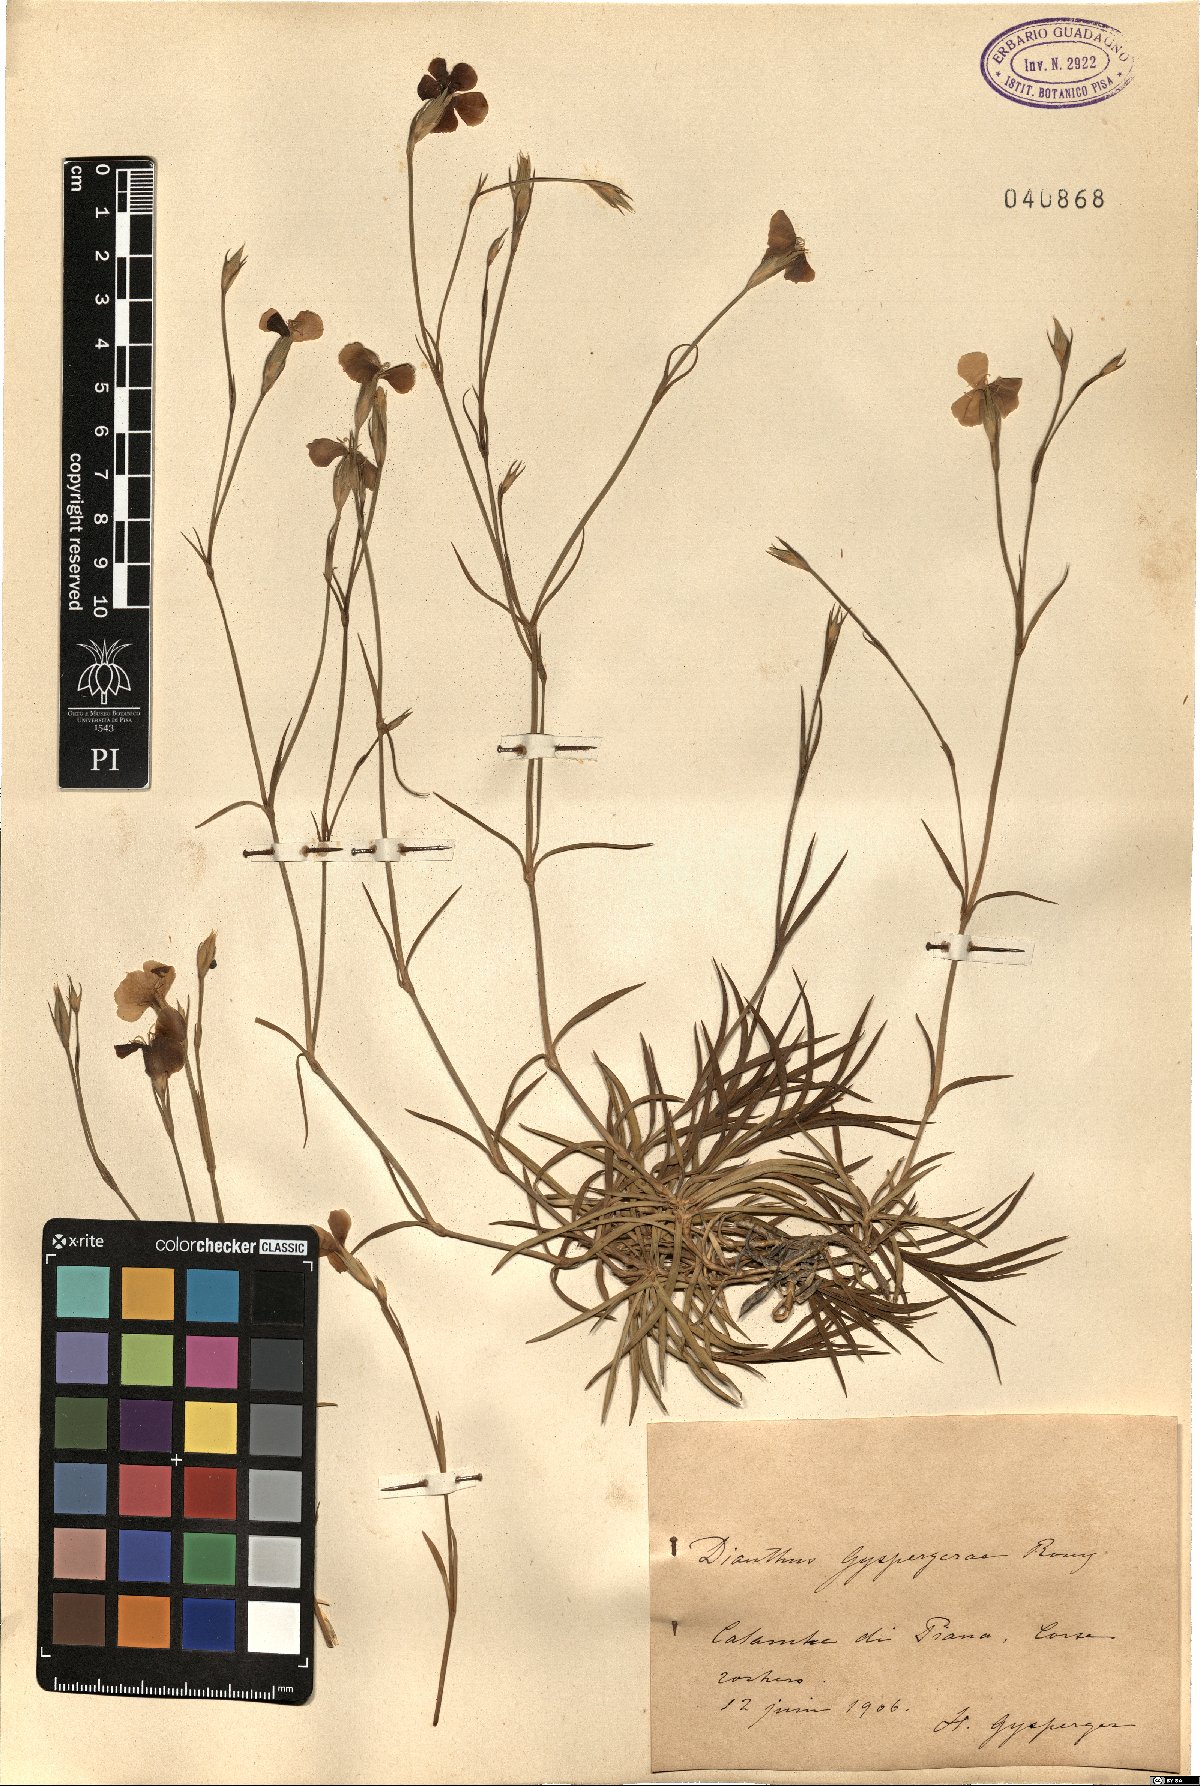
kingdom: Plantae
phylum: Tracheophyta
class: Magnoliopsida
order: Caryophyllales
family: Caryophyllaceae
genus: Dianthus
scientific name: Dianthus furcatus
